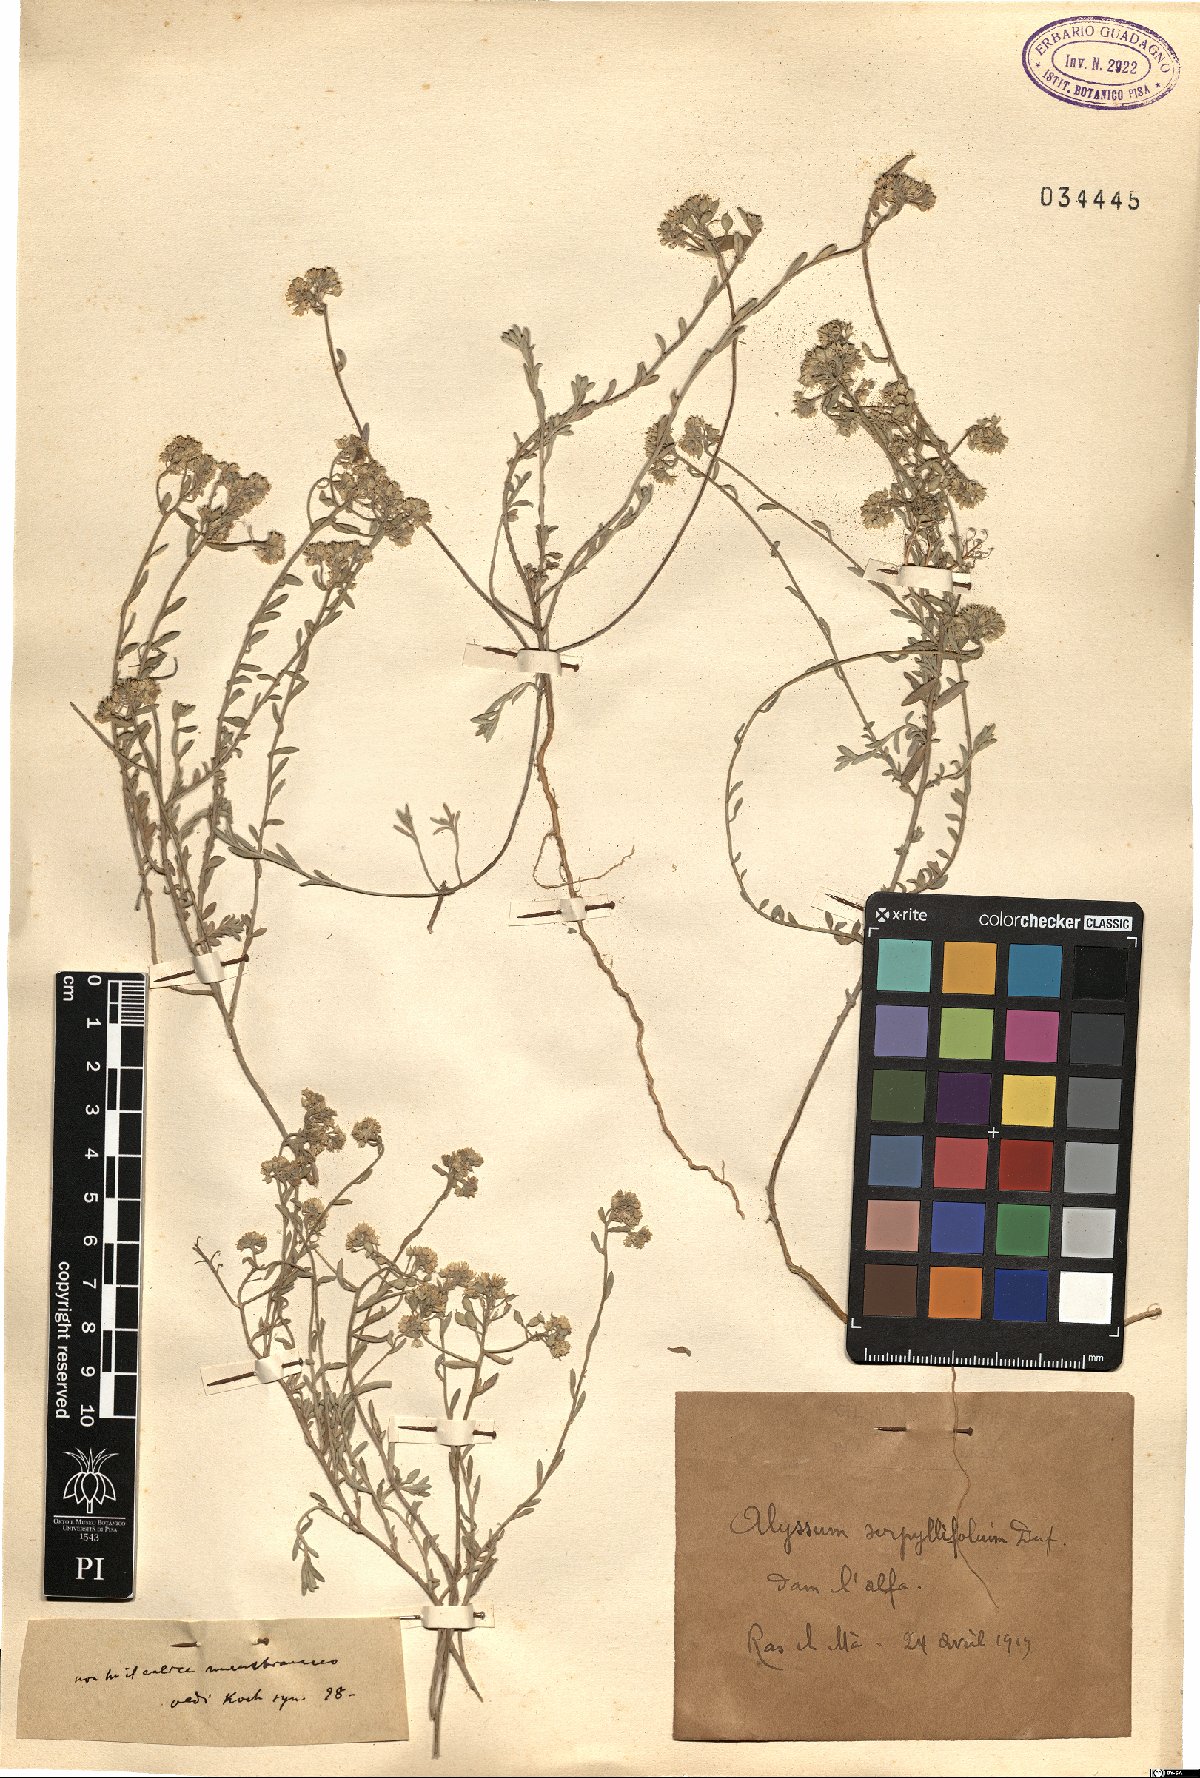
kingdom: Plantae
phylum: Tracheophyta
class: Magnoliopsida
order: Brassicales
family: Brassicaceae
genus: Odontarrhena
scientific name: Odontarrhena serpyllifolia
